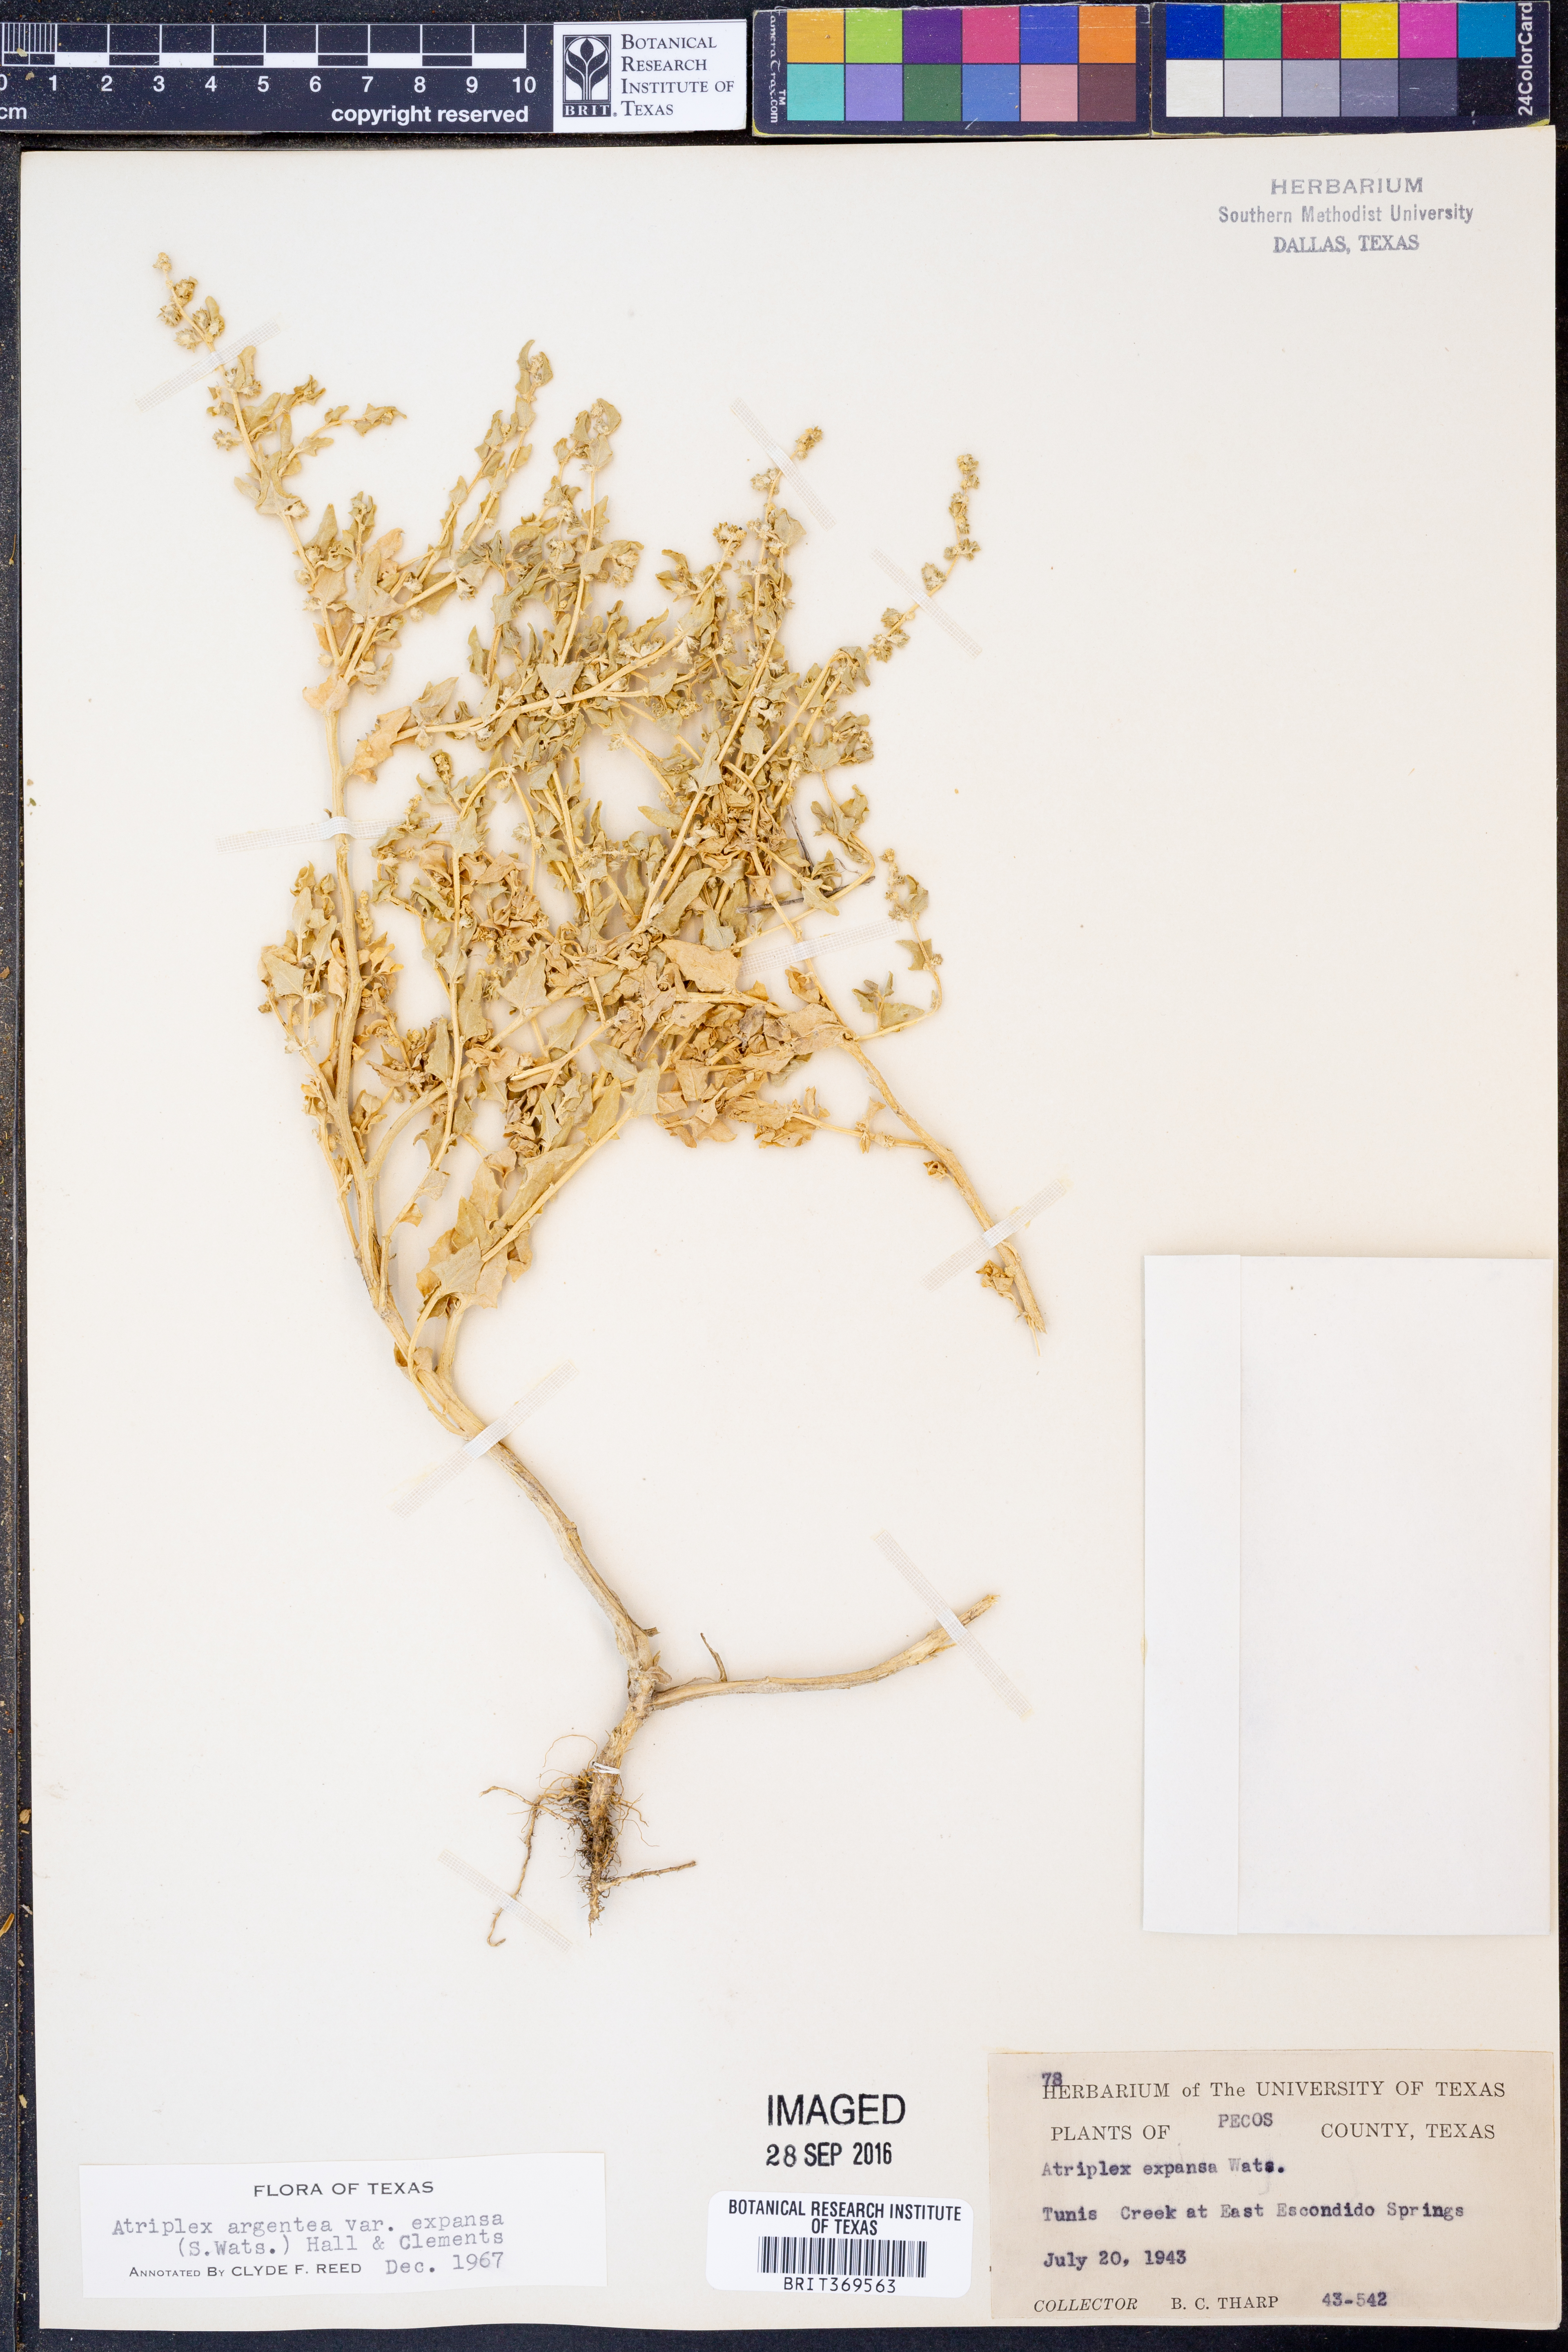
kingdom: Plantae
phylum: Tracheophyta
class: Magnoliopsida
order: Caryophyllales
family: Amaranthaceae
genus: Atriplex
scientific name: Atriplex argentea
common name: Silverscale
